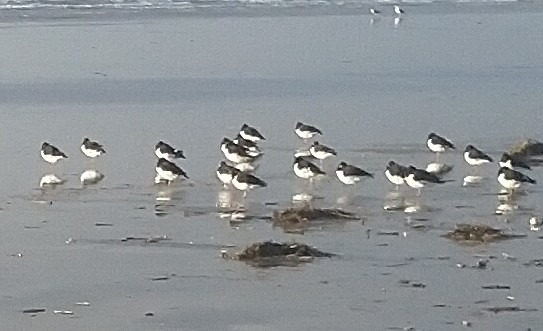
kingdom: Animalia
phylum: Chordata
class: Aves
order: Charadriiformes
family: Haematopodidae
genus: Haematopus
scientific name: Haematopus ostralegus
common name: Strandskade
